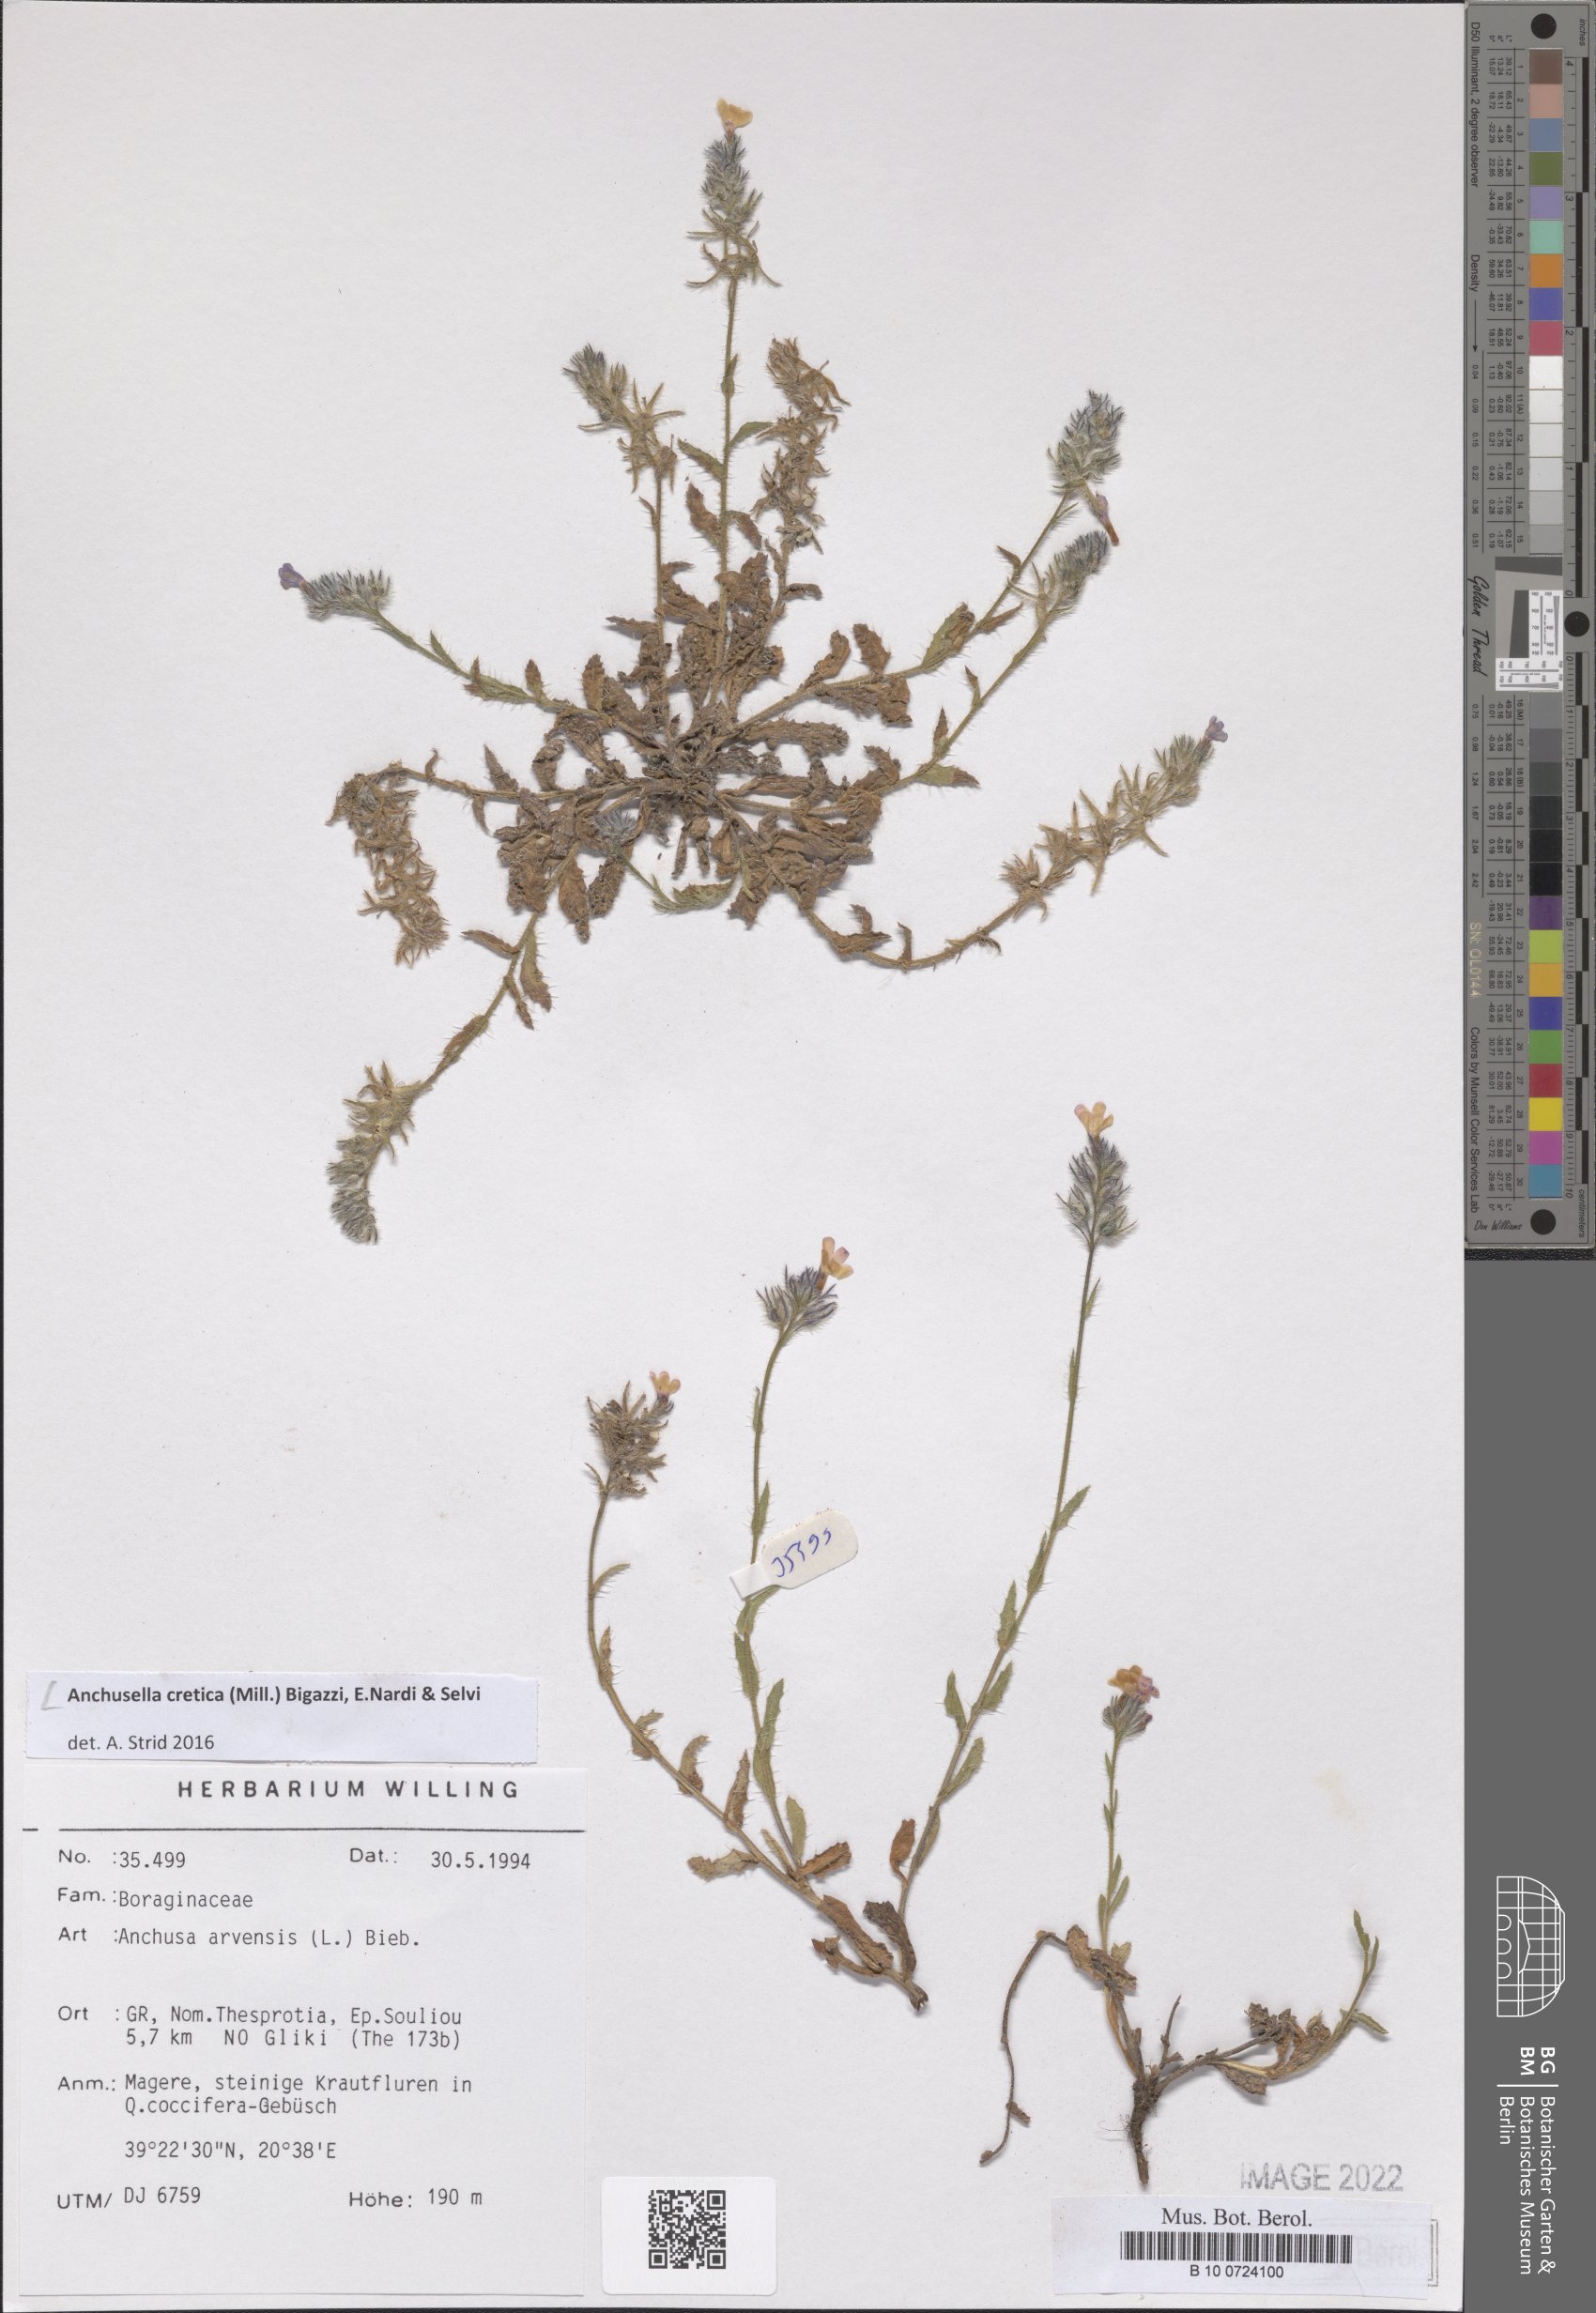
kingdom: Plantae
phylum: Tracheophyta
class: Magnoliopsida
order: Boraginales
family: Boraginaceae
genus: Anchusella
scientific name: Anchusella cretica
